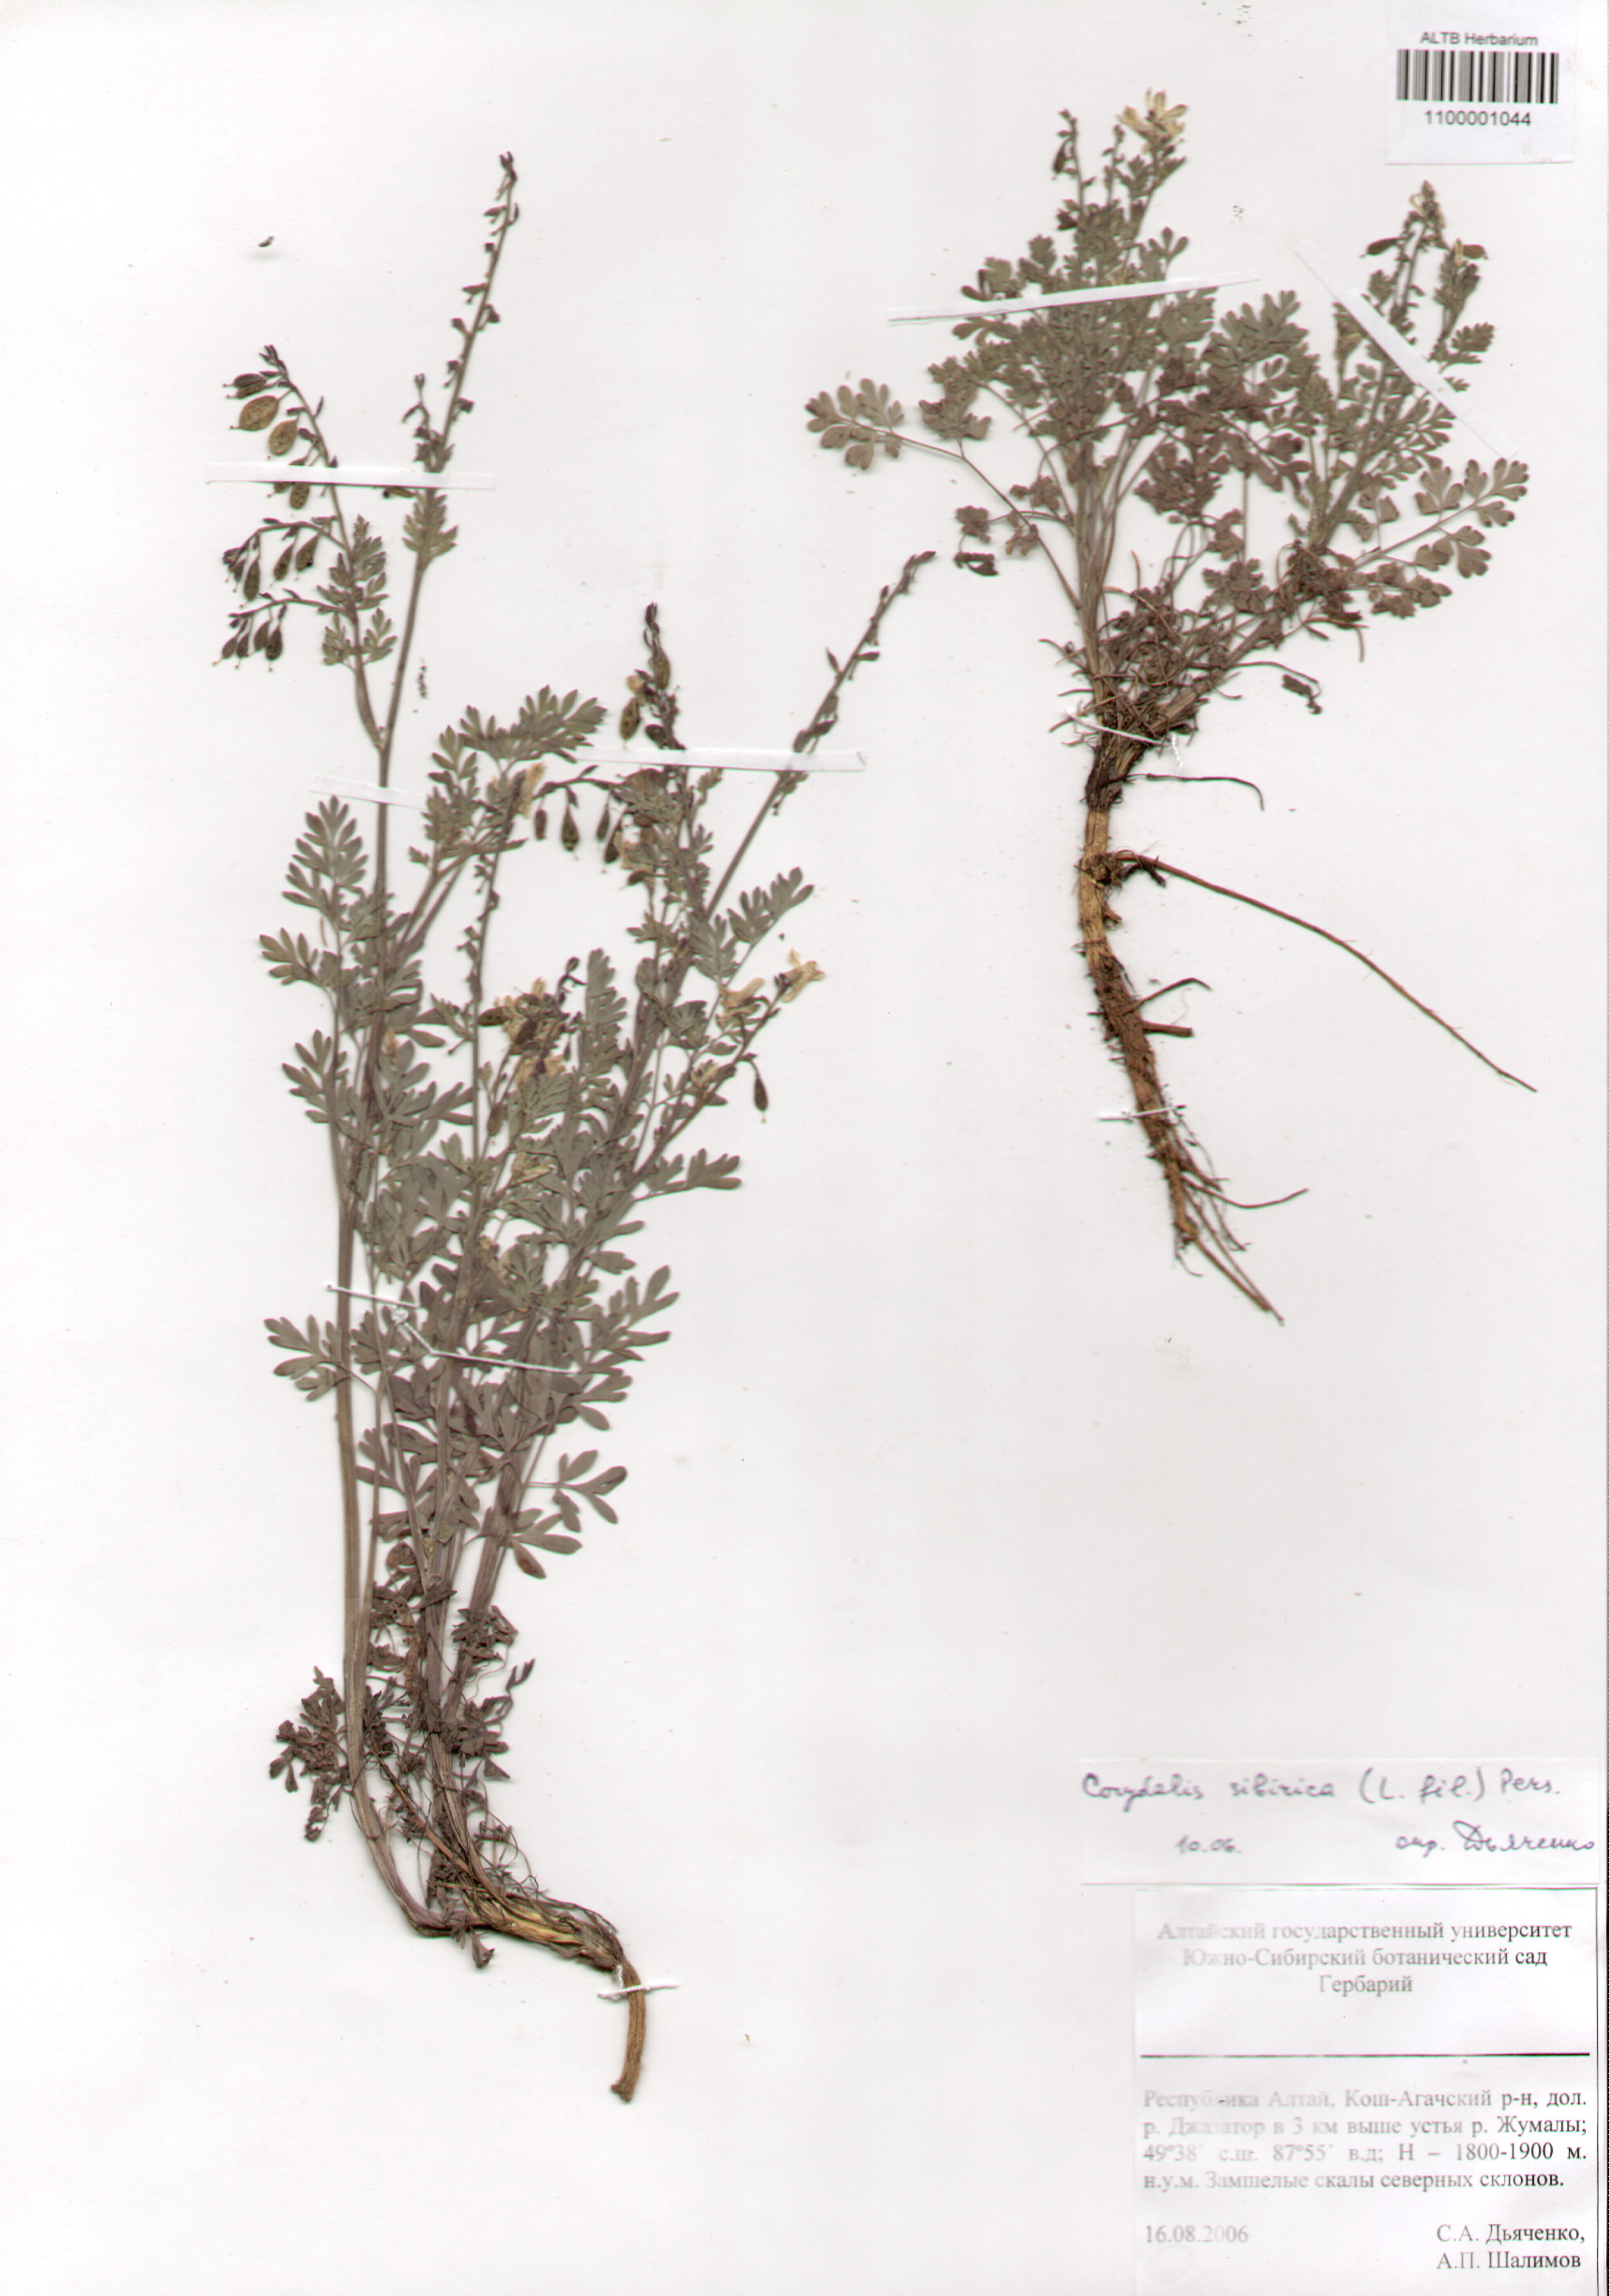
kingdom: Plantae
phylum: Tracheophyta
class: Magnoliopsida
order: Ranunculales
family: Papaveraceae
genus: Corydalis
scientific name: Corydalis sibirica
